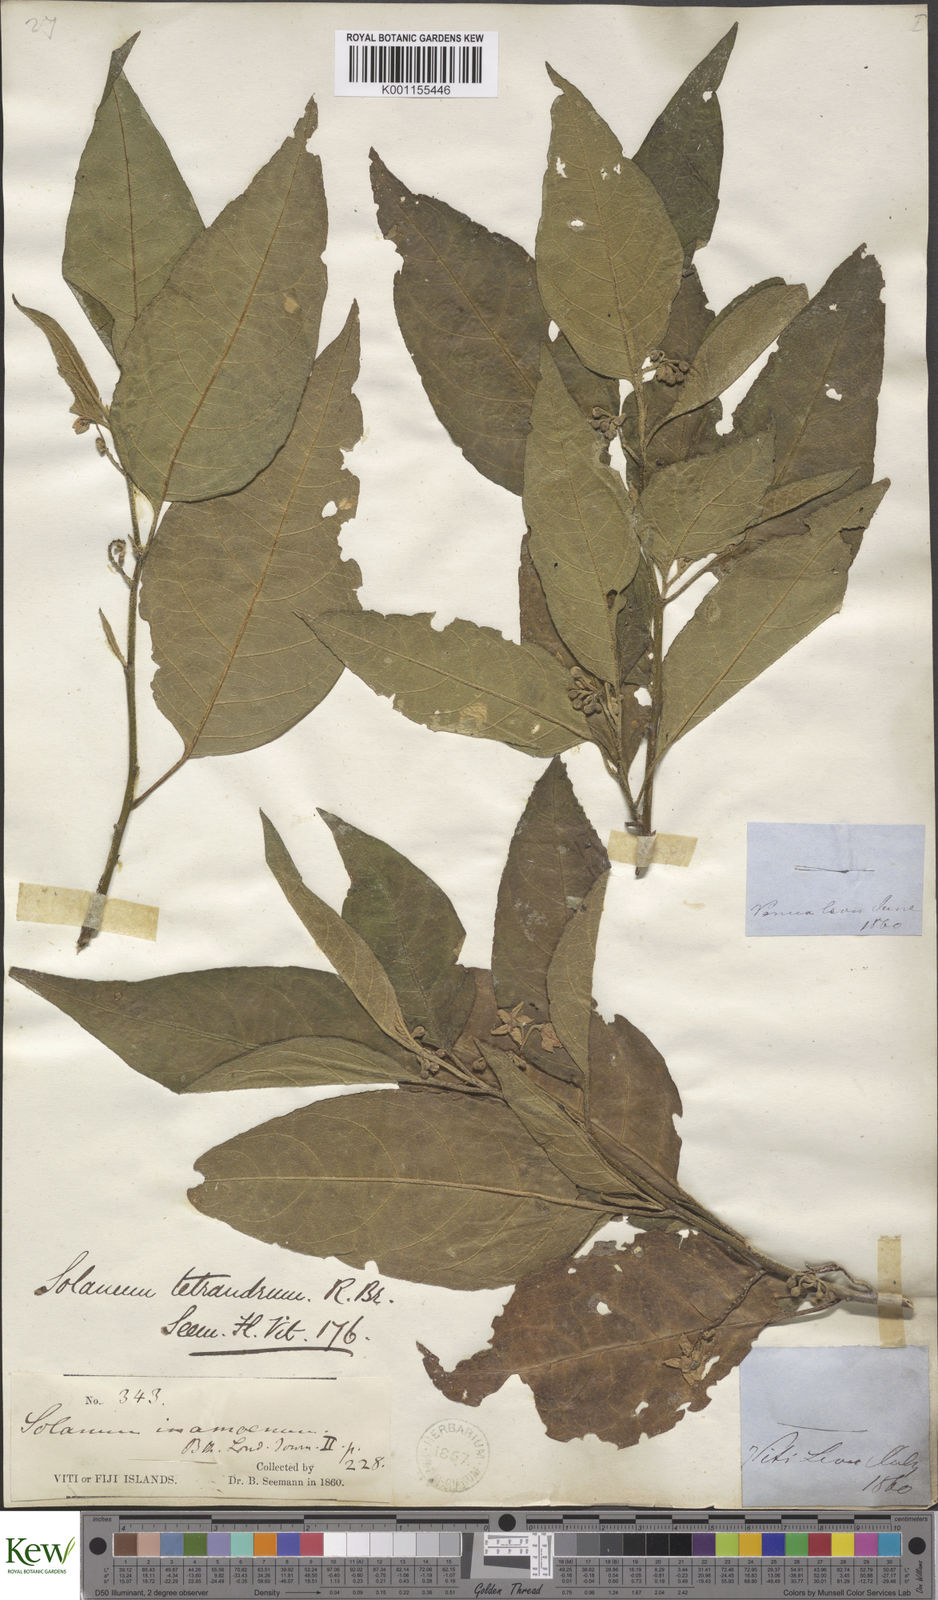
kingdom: Plantae
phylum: Tracheophyta
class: Magnoliopsida
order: Solanales
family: Solanaceae
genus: Solanum
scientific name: Solanum inamoenum
